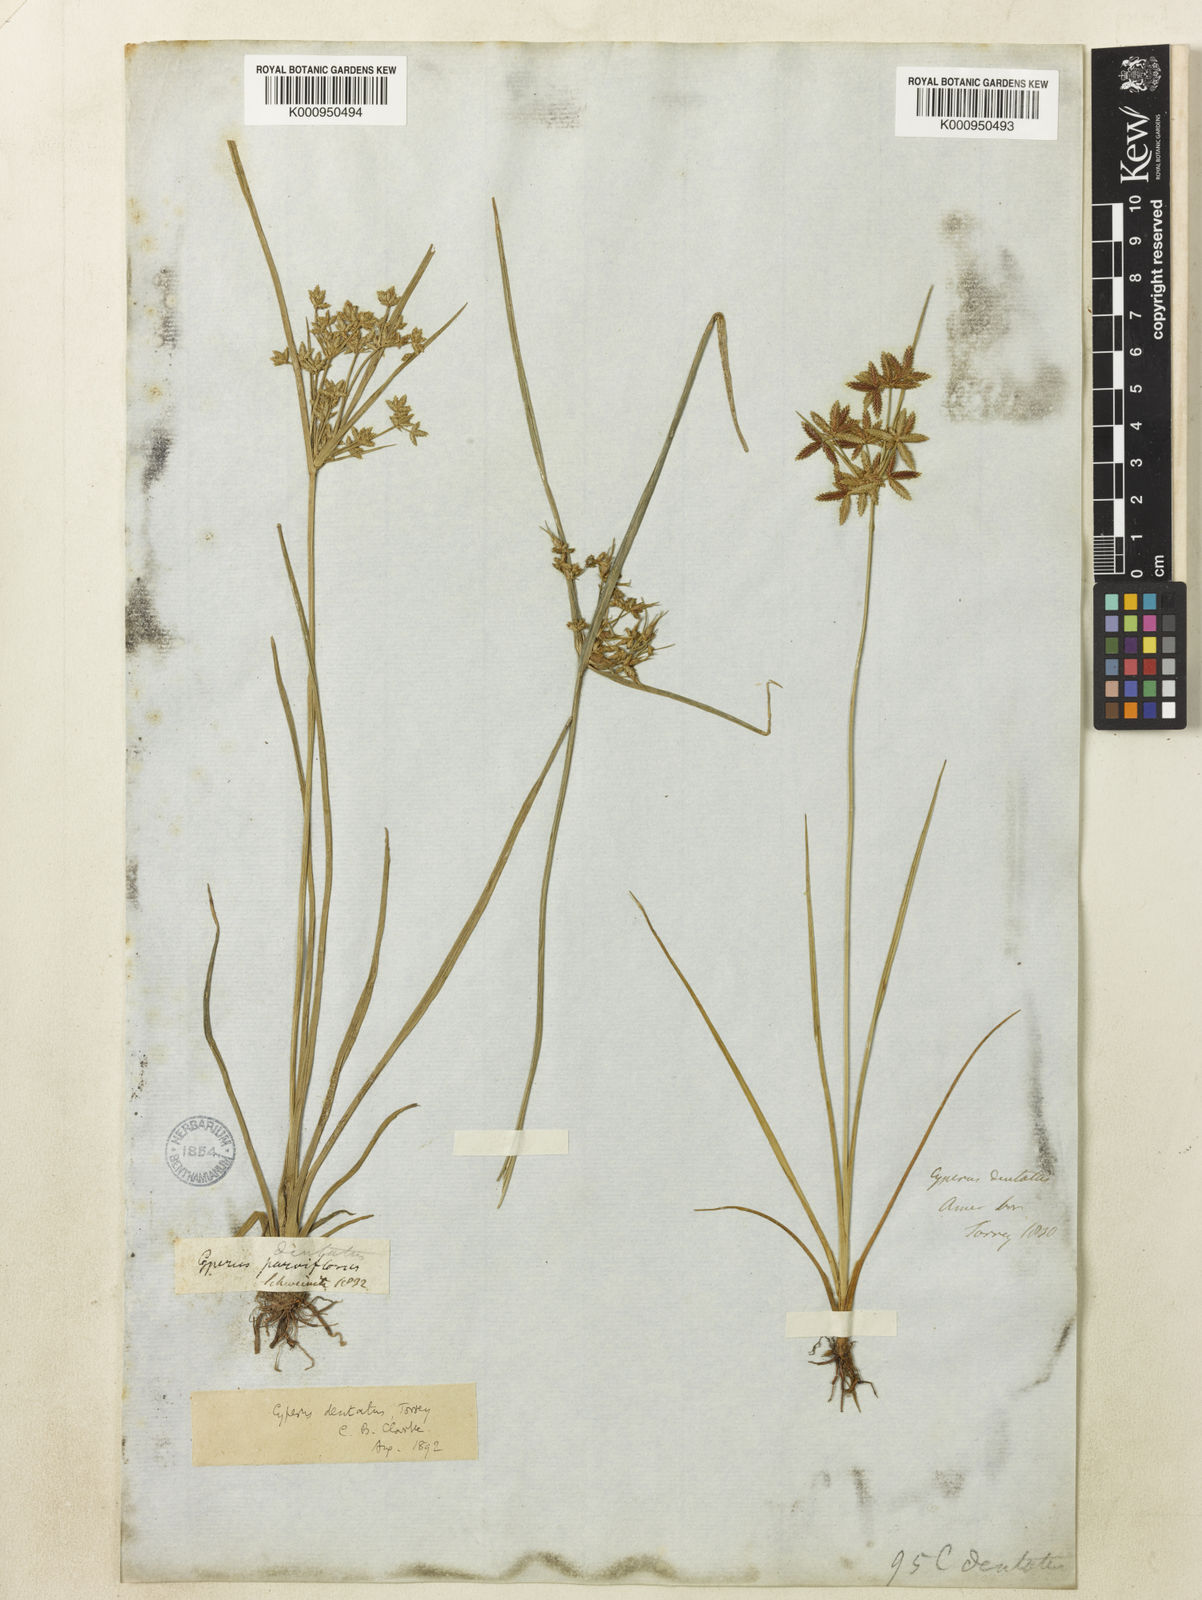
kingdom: Plantae
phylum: Tracheophyta
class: Liliopsida
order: Poales
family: Cyperaceae
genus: Cyperus
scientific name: Cyperus dentatus
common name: Dentate umbrella sedge
